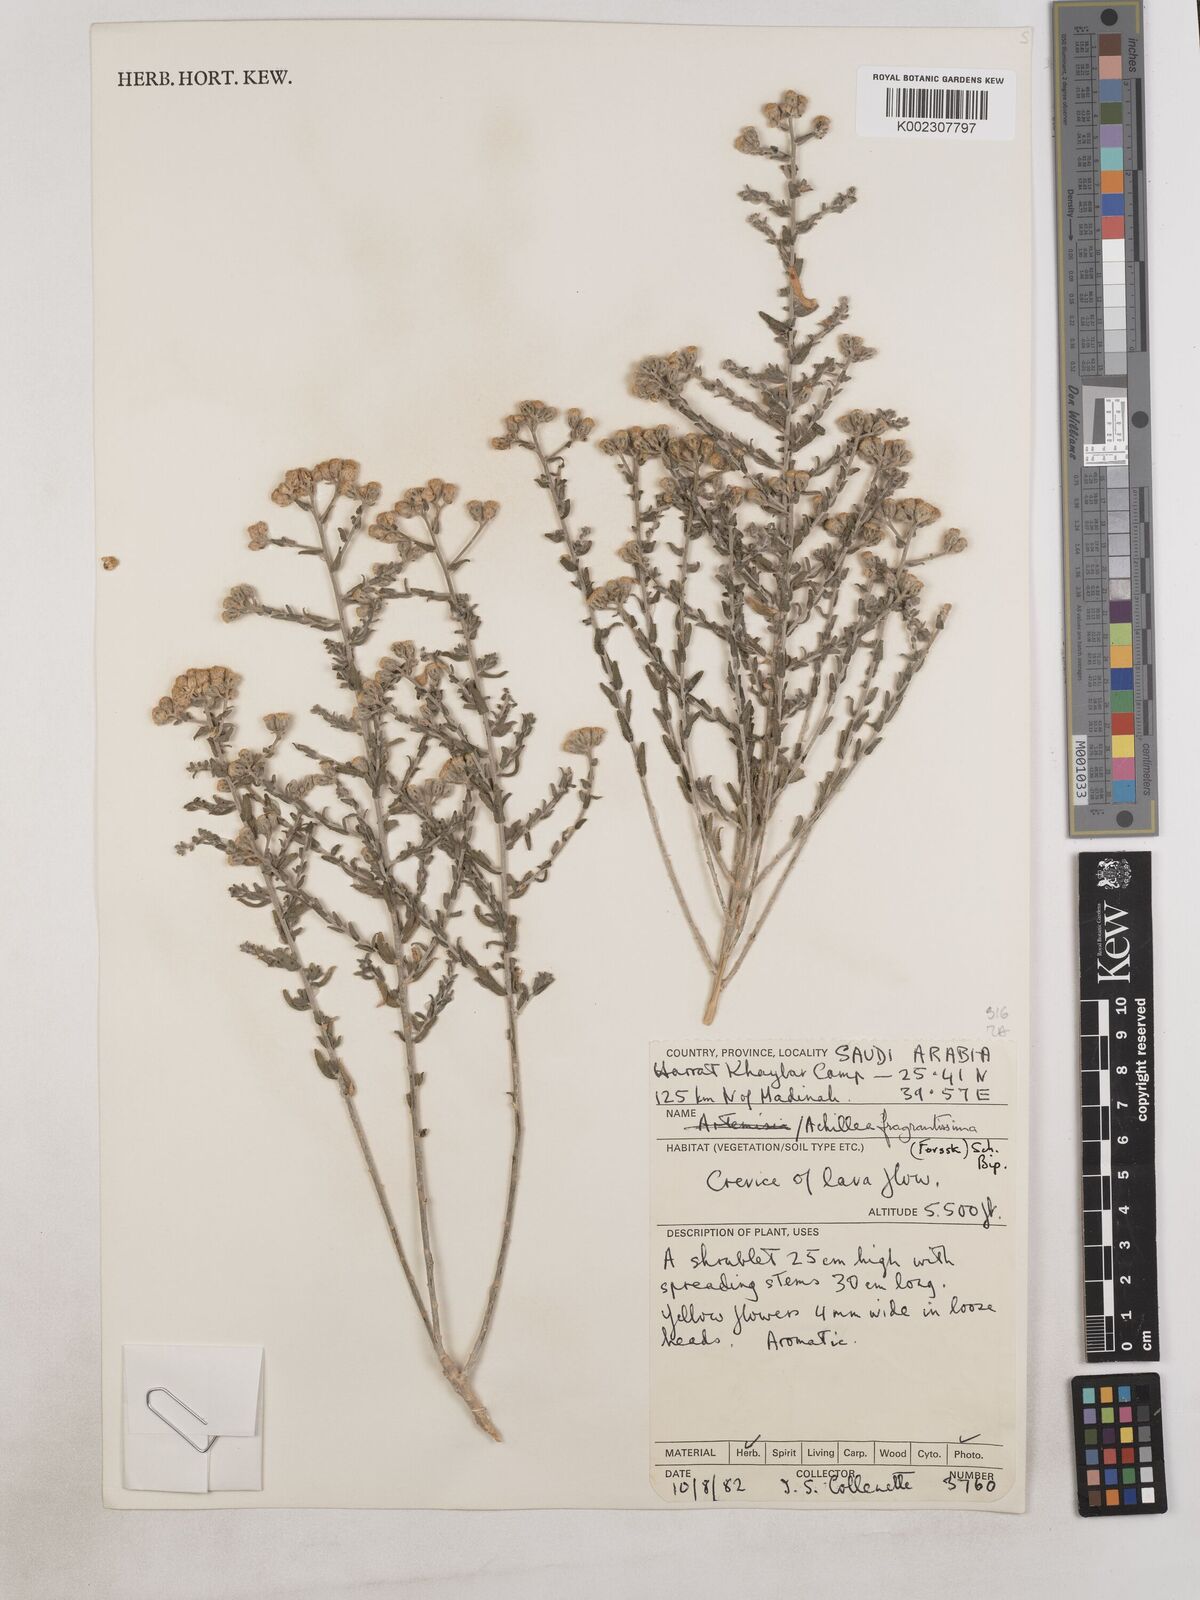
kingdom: Plantae
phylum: Tracheophyta
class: Magnoliopsida
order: Asterales
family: Asteraceae
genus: Achillea
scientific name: Achillea fragrantissima
